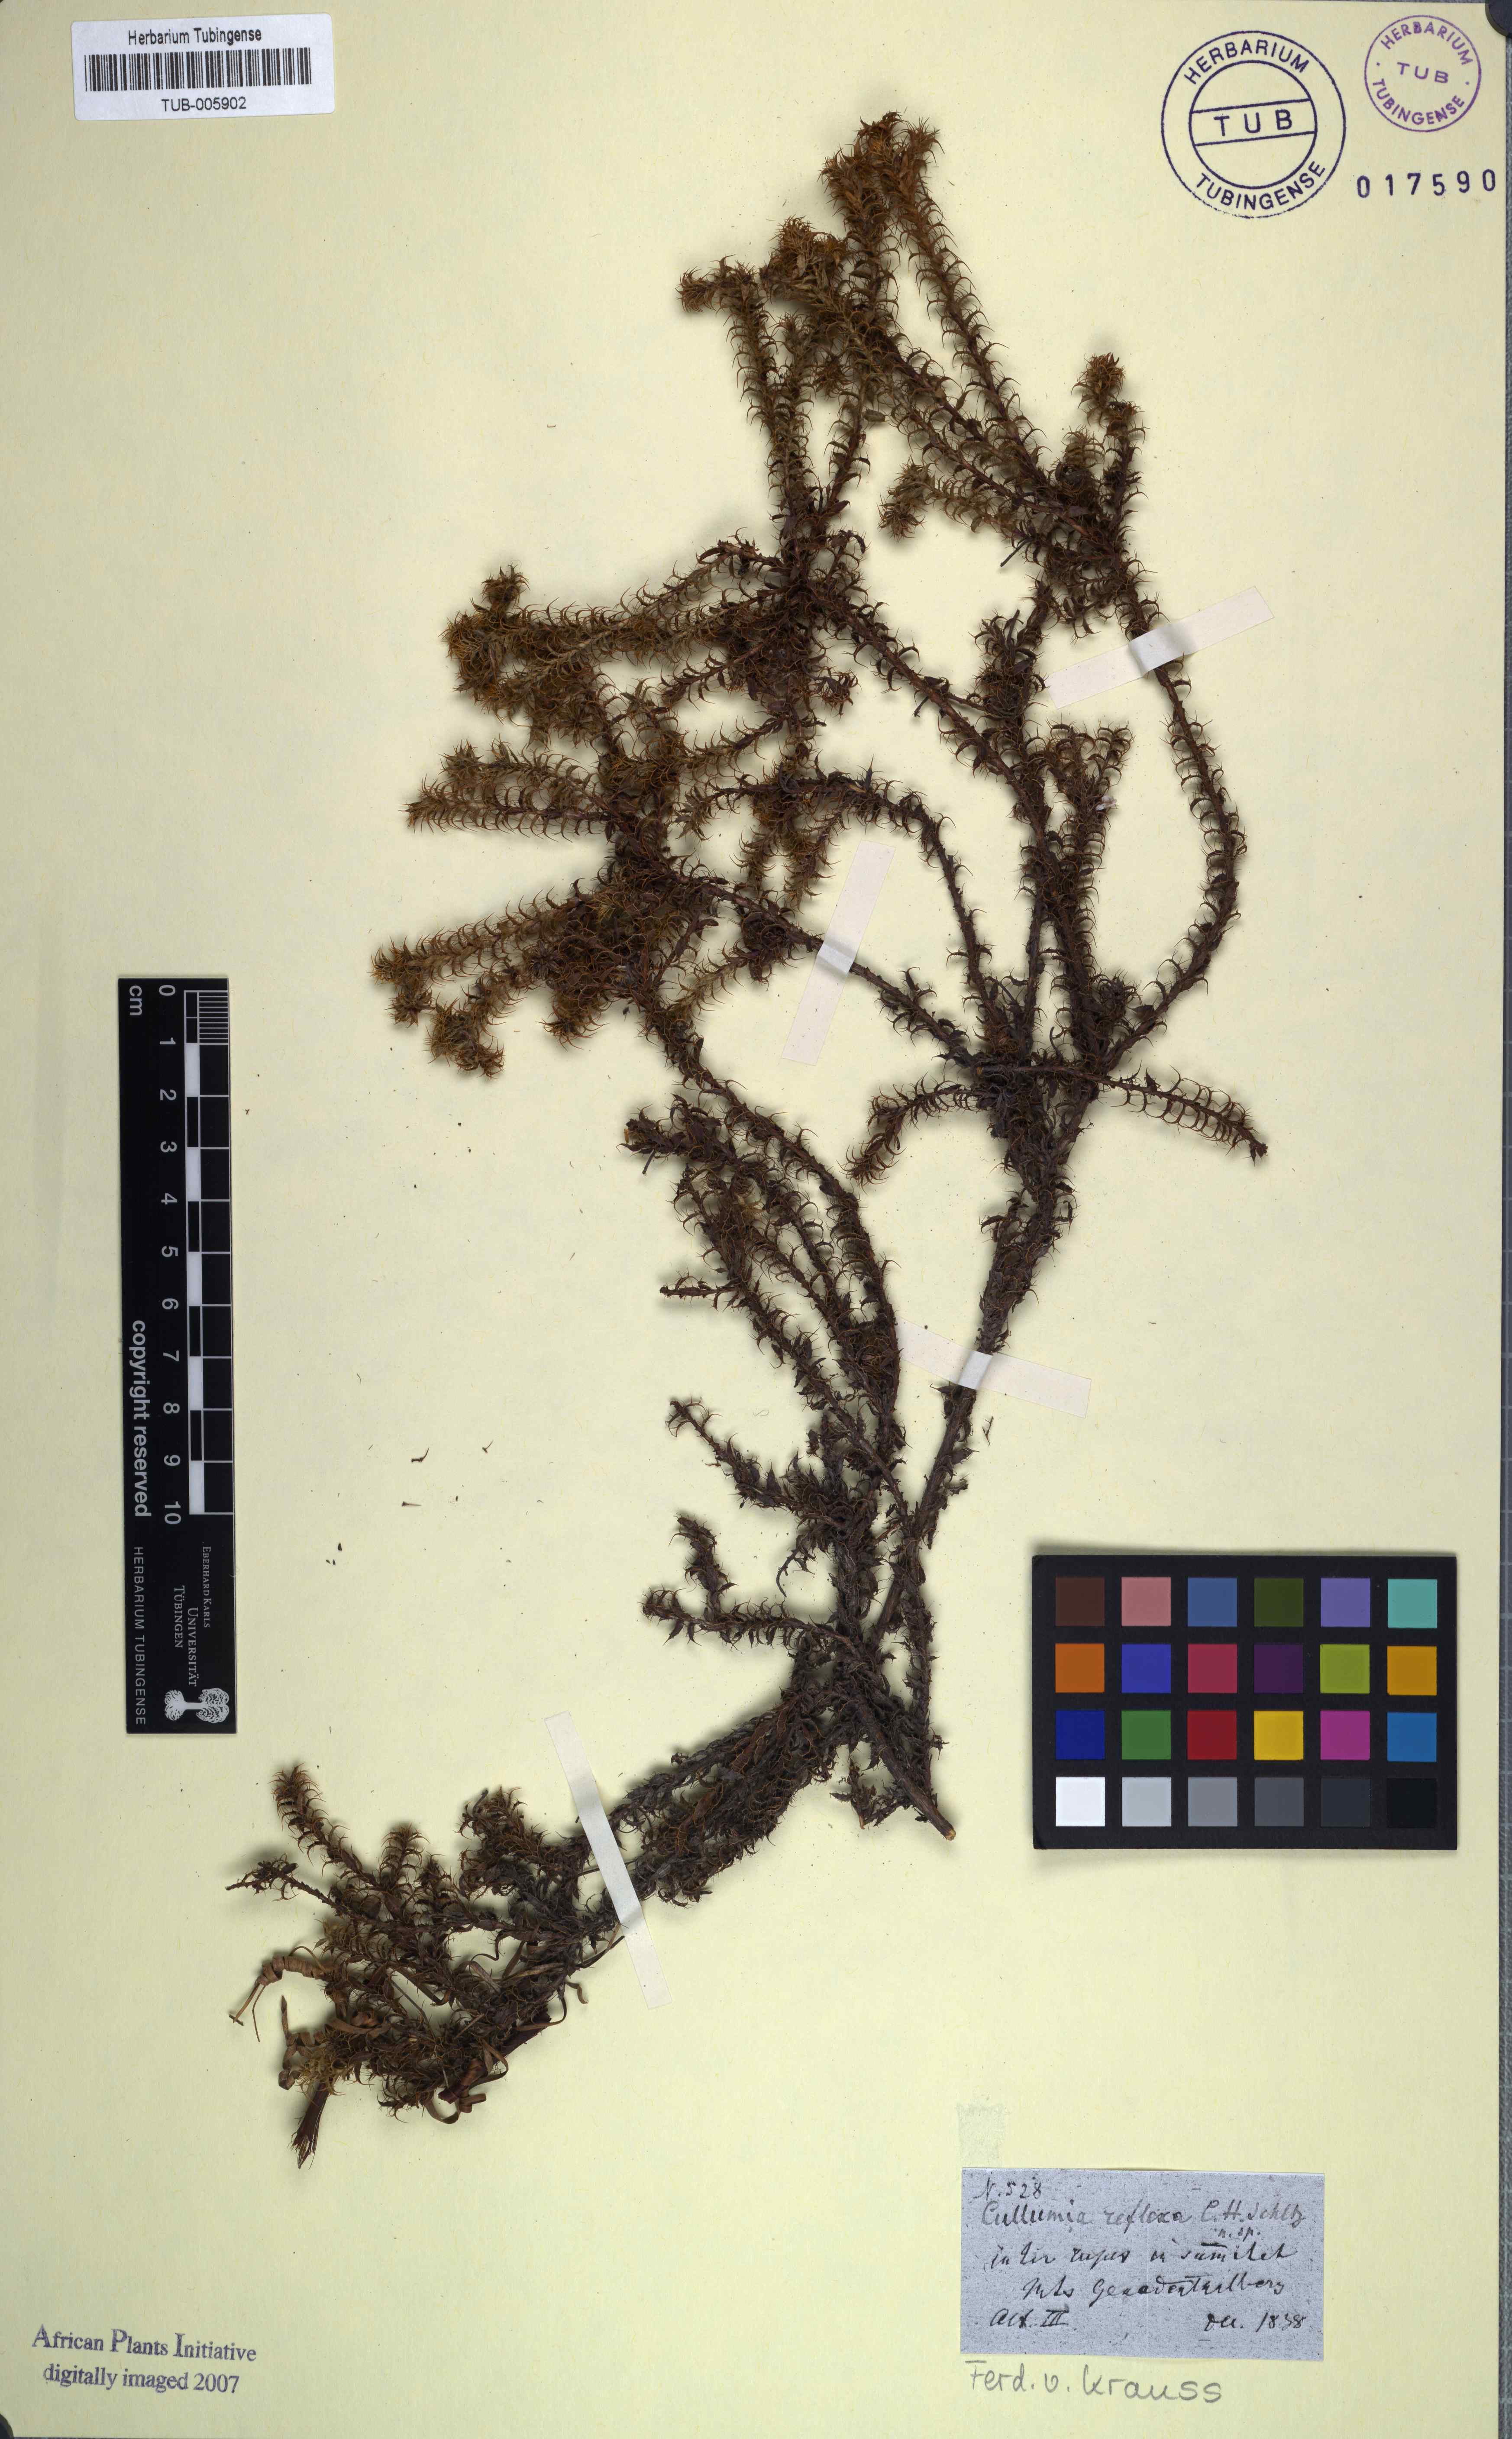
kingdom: Plantae
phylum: Tracheophyta
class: Magnoliopsida
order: Asterales
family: Asteraceae
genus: Cullumia
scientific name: Cullumia decurrens
